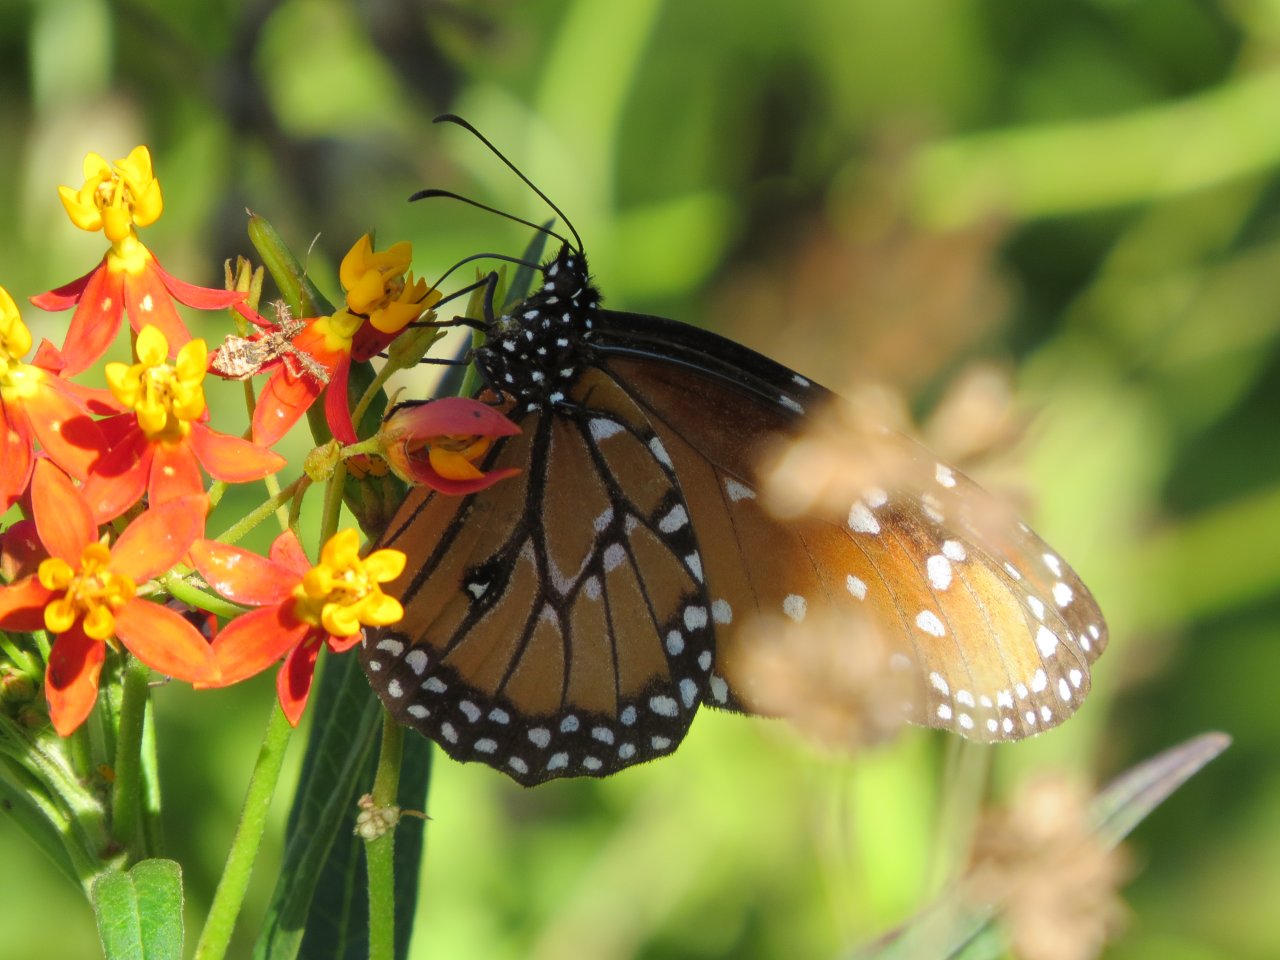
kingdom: Animalia
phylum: Arthropoda
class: Insecta
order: Lepidoptera
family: Nymphalidae
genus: Danaus
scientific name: Danaus gilippus
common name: Queen
